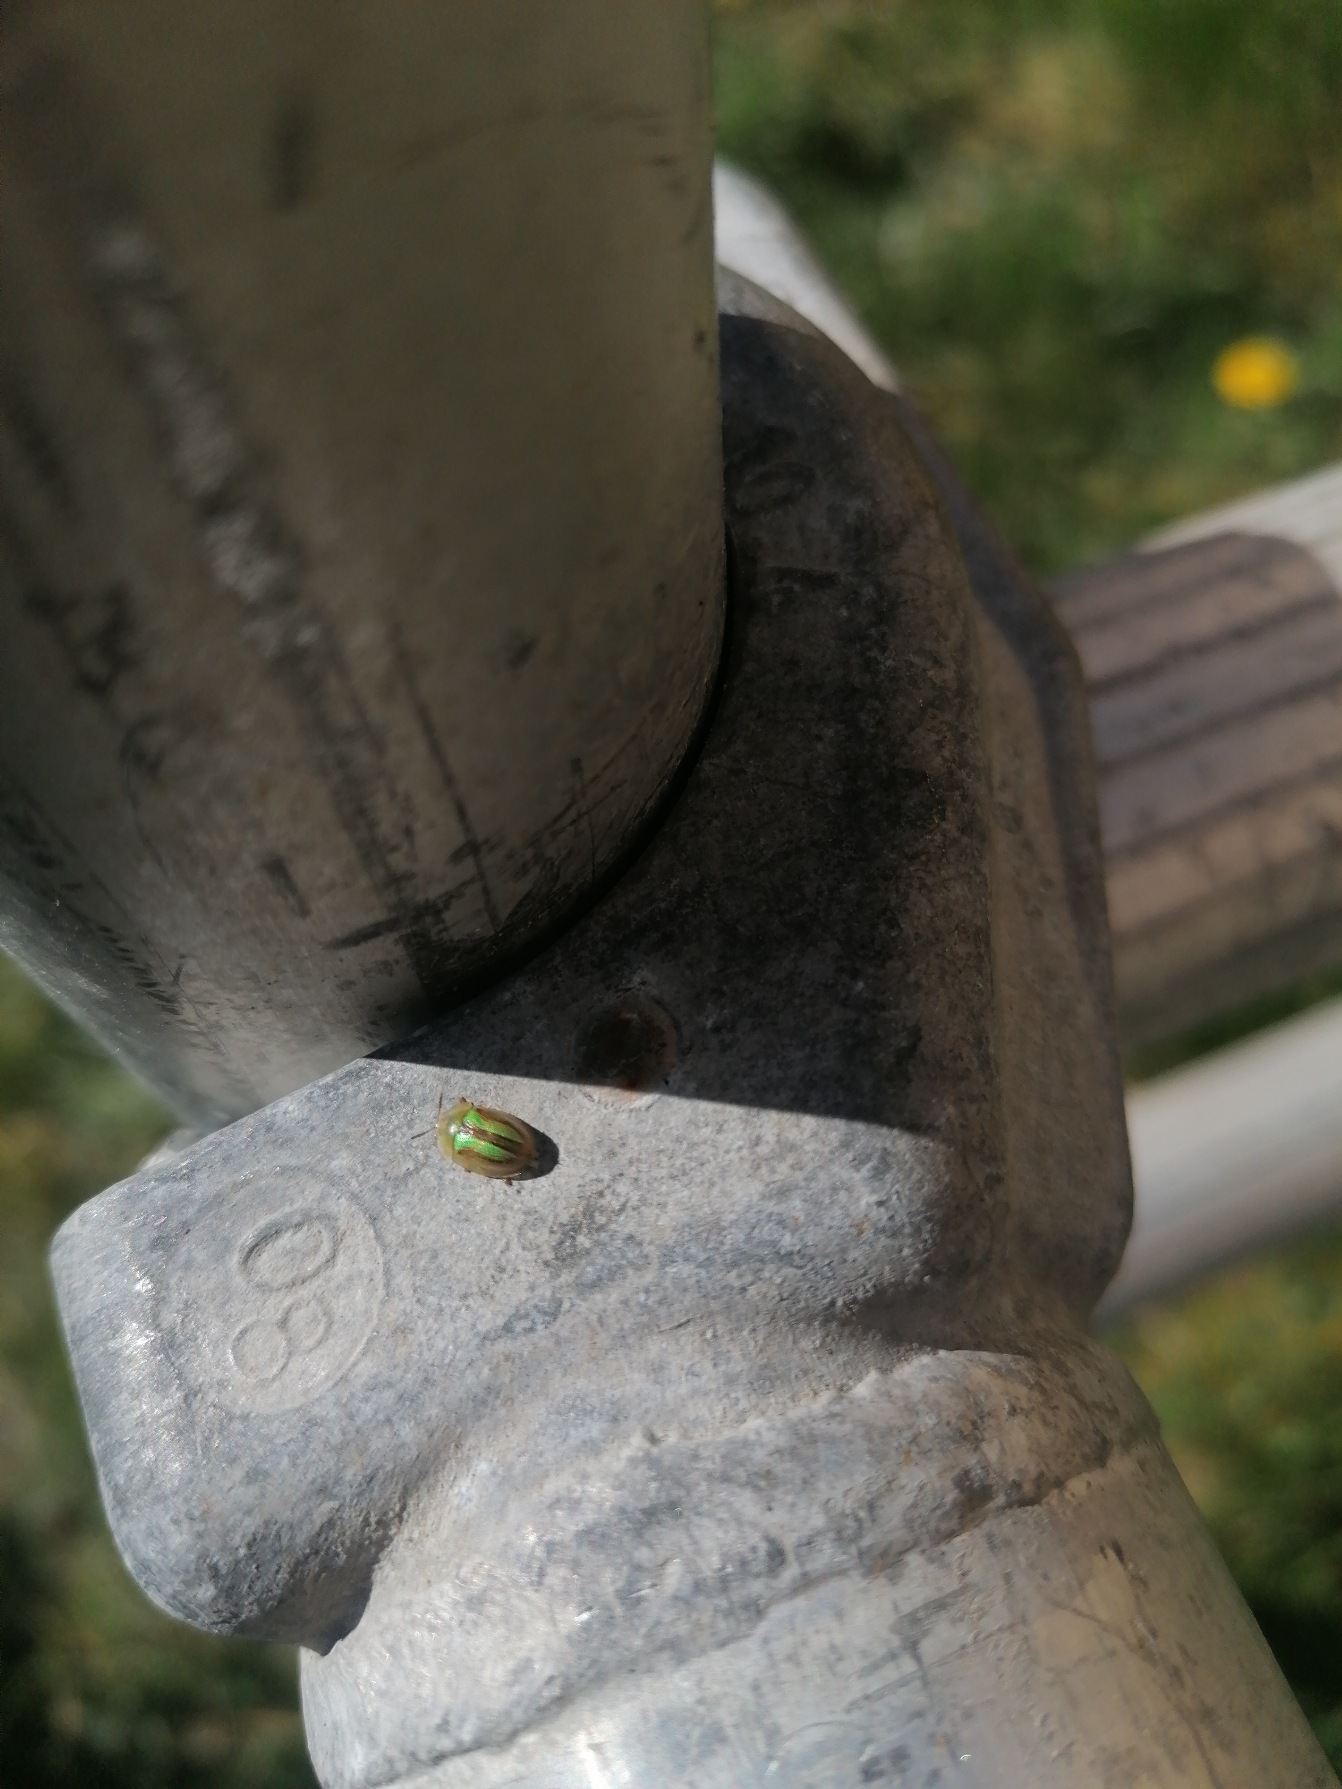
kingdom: Animalia
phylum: Arthropoda
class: Insecta
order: Coleoptera
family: Chrysomelidae
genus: Cassida
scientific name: Cassida vittata
